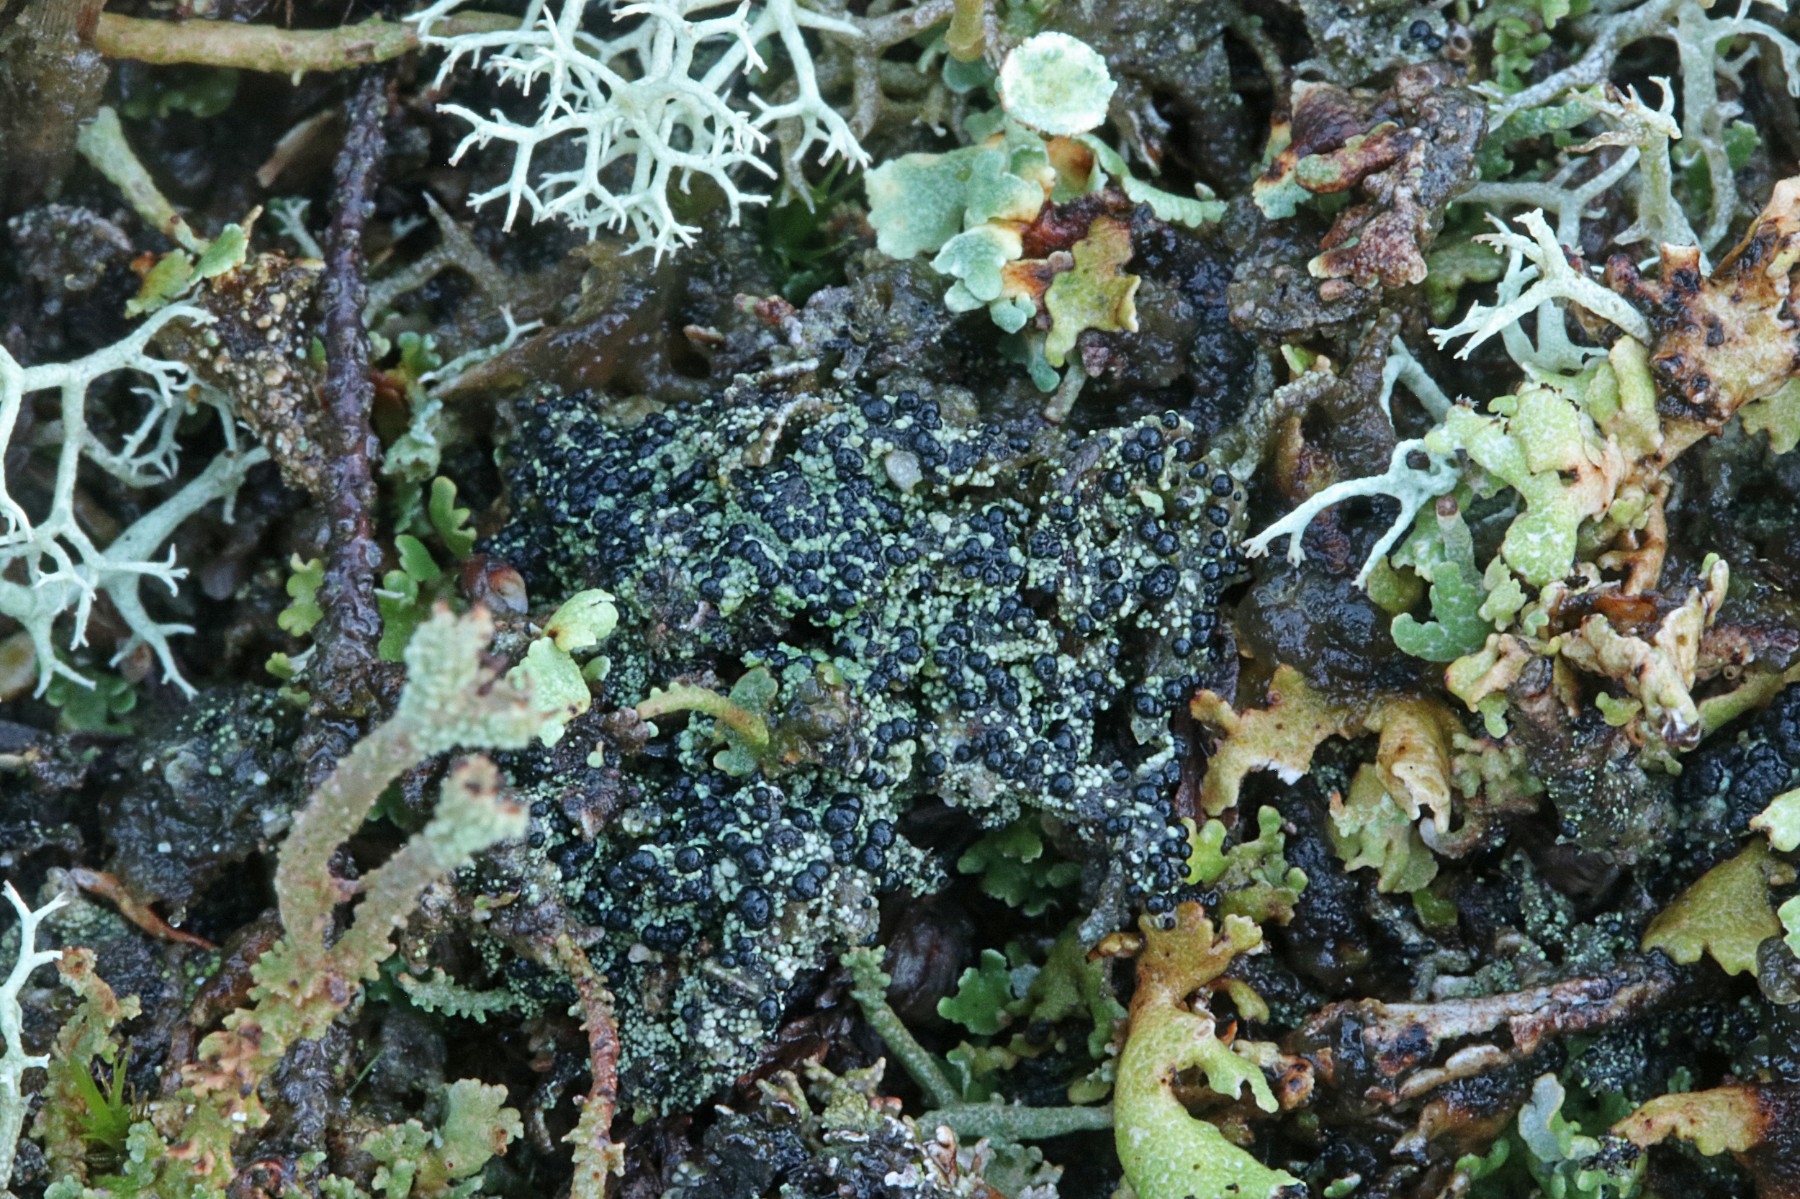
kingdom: Fungi
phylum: Ascomycota
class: Lecanoromycetes
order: Lecanorales
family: Byssolomataceae
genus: Micarea
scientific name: Micarea lignaria
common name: tørve-knaplav
